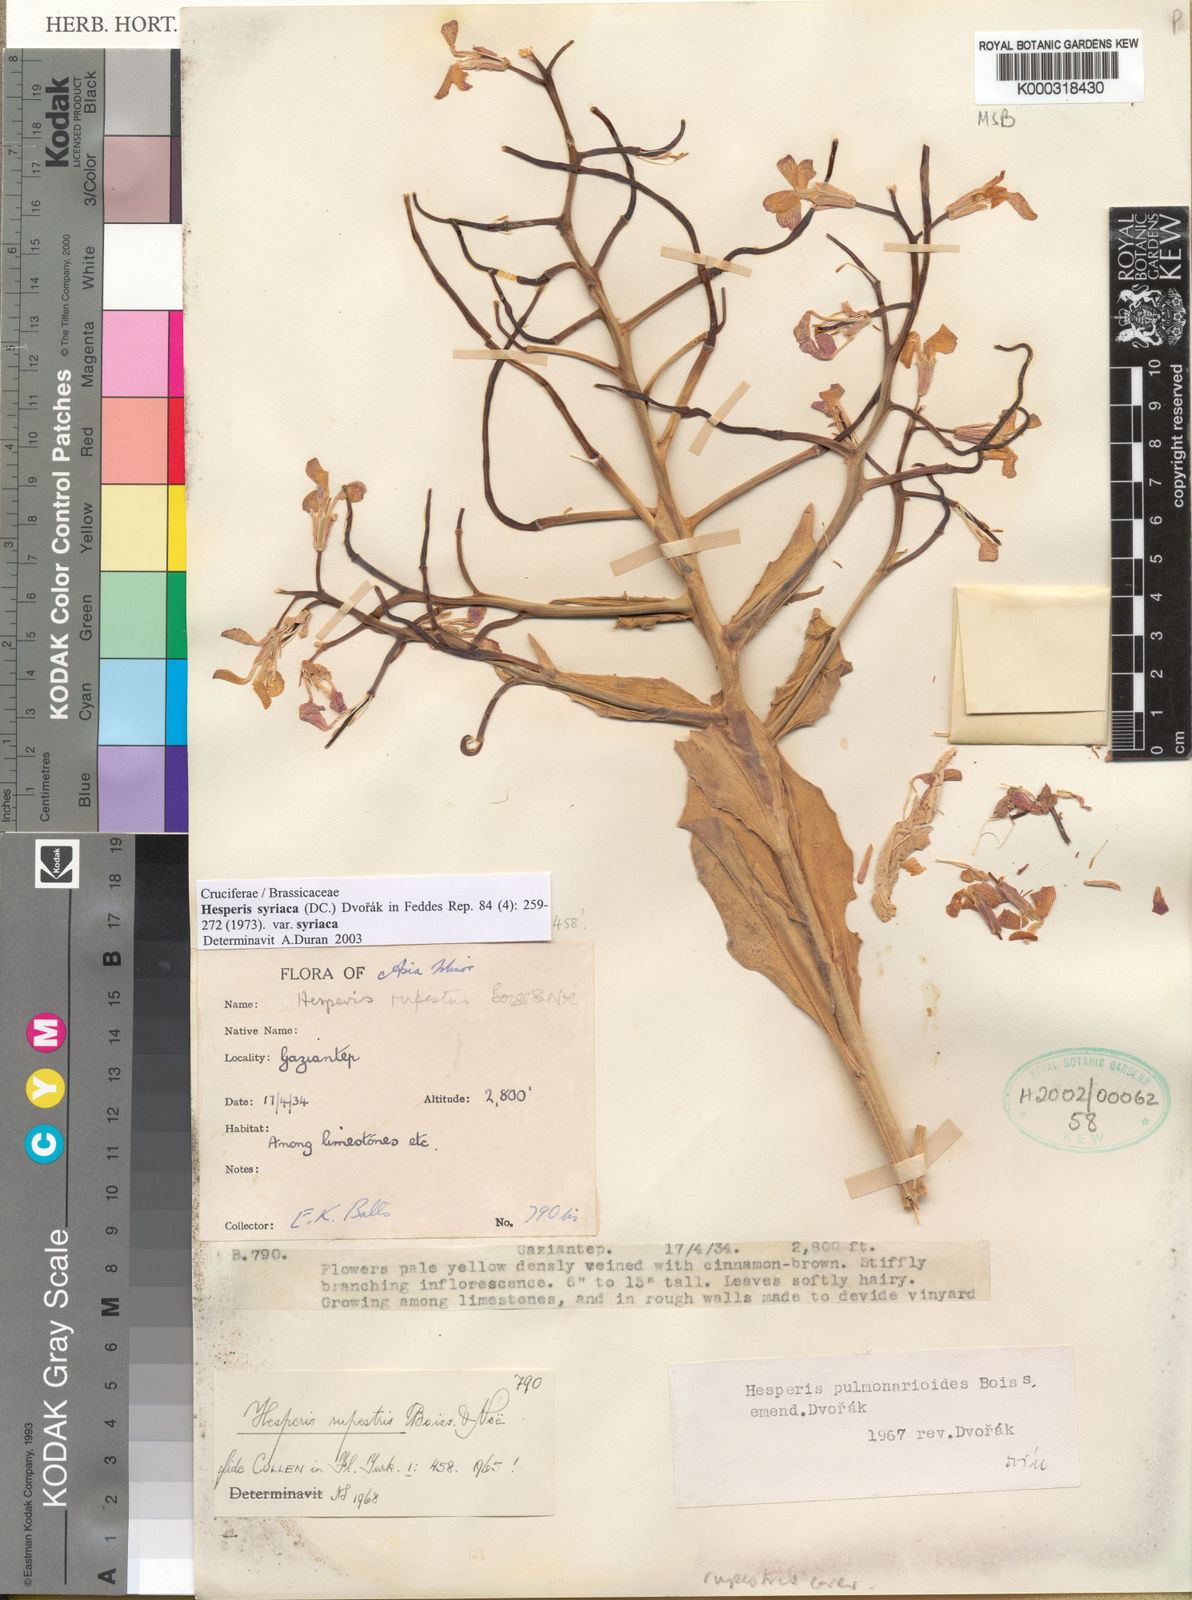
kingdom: Plantae
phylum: Tracheophyta
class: Magnoliopsida
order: Brassicales
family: Brassicaceae
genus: Hesperis
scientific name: Hesperis syriaca
